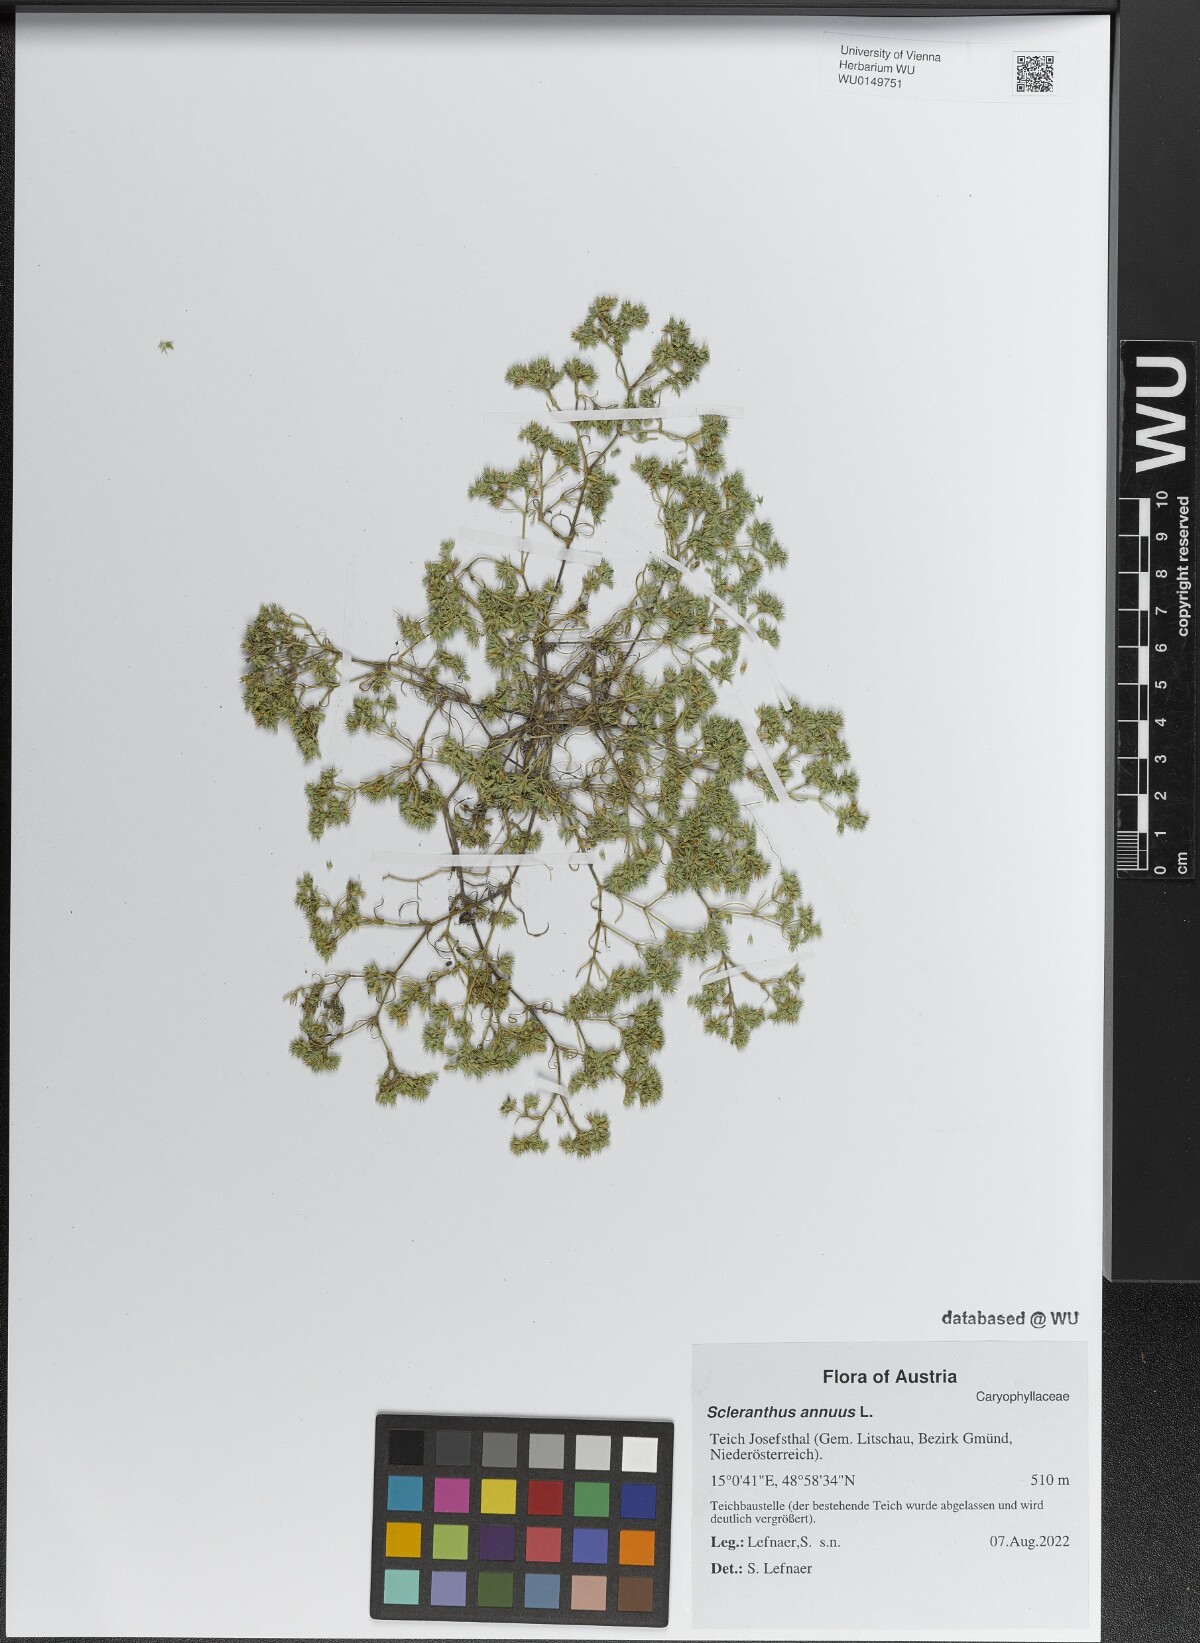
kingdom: Plantae
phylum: Tracheophyta
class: Magnoliopsida
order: Caryophyllales
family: Caryophyllaceae
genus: Scleranthus
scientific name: Scleranthus annuus
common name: Annual knawel
